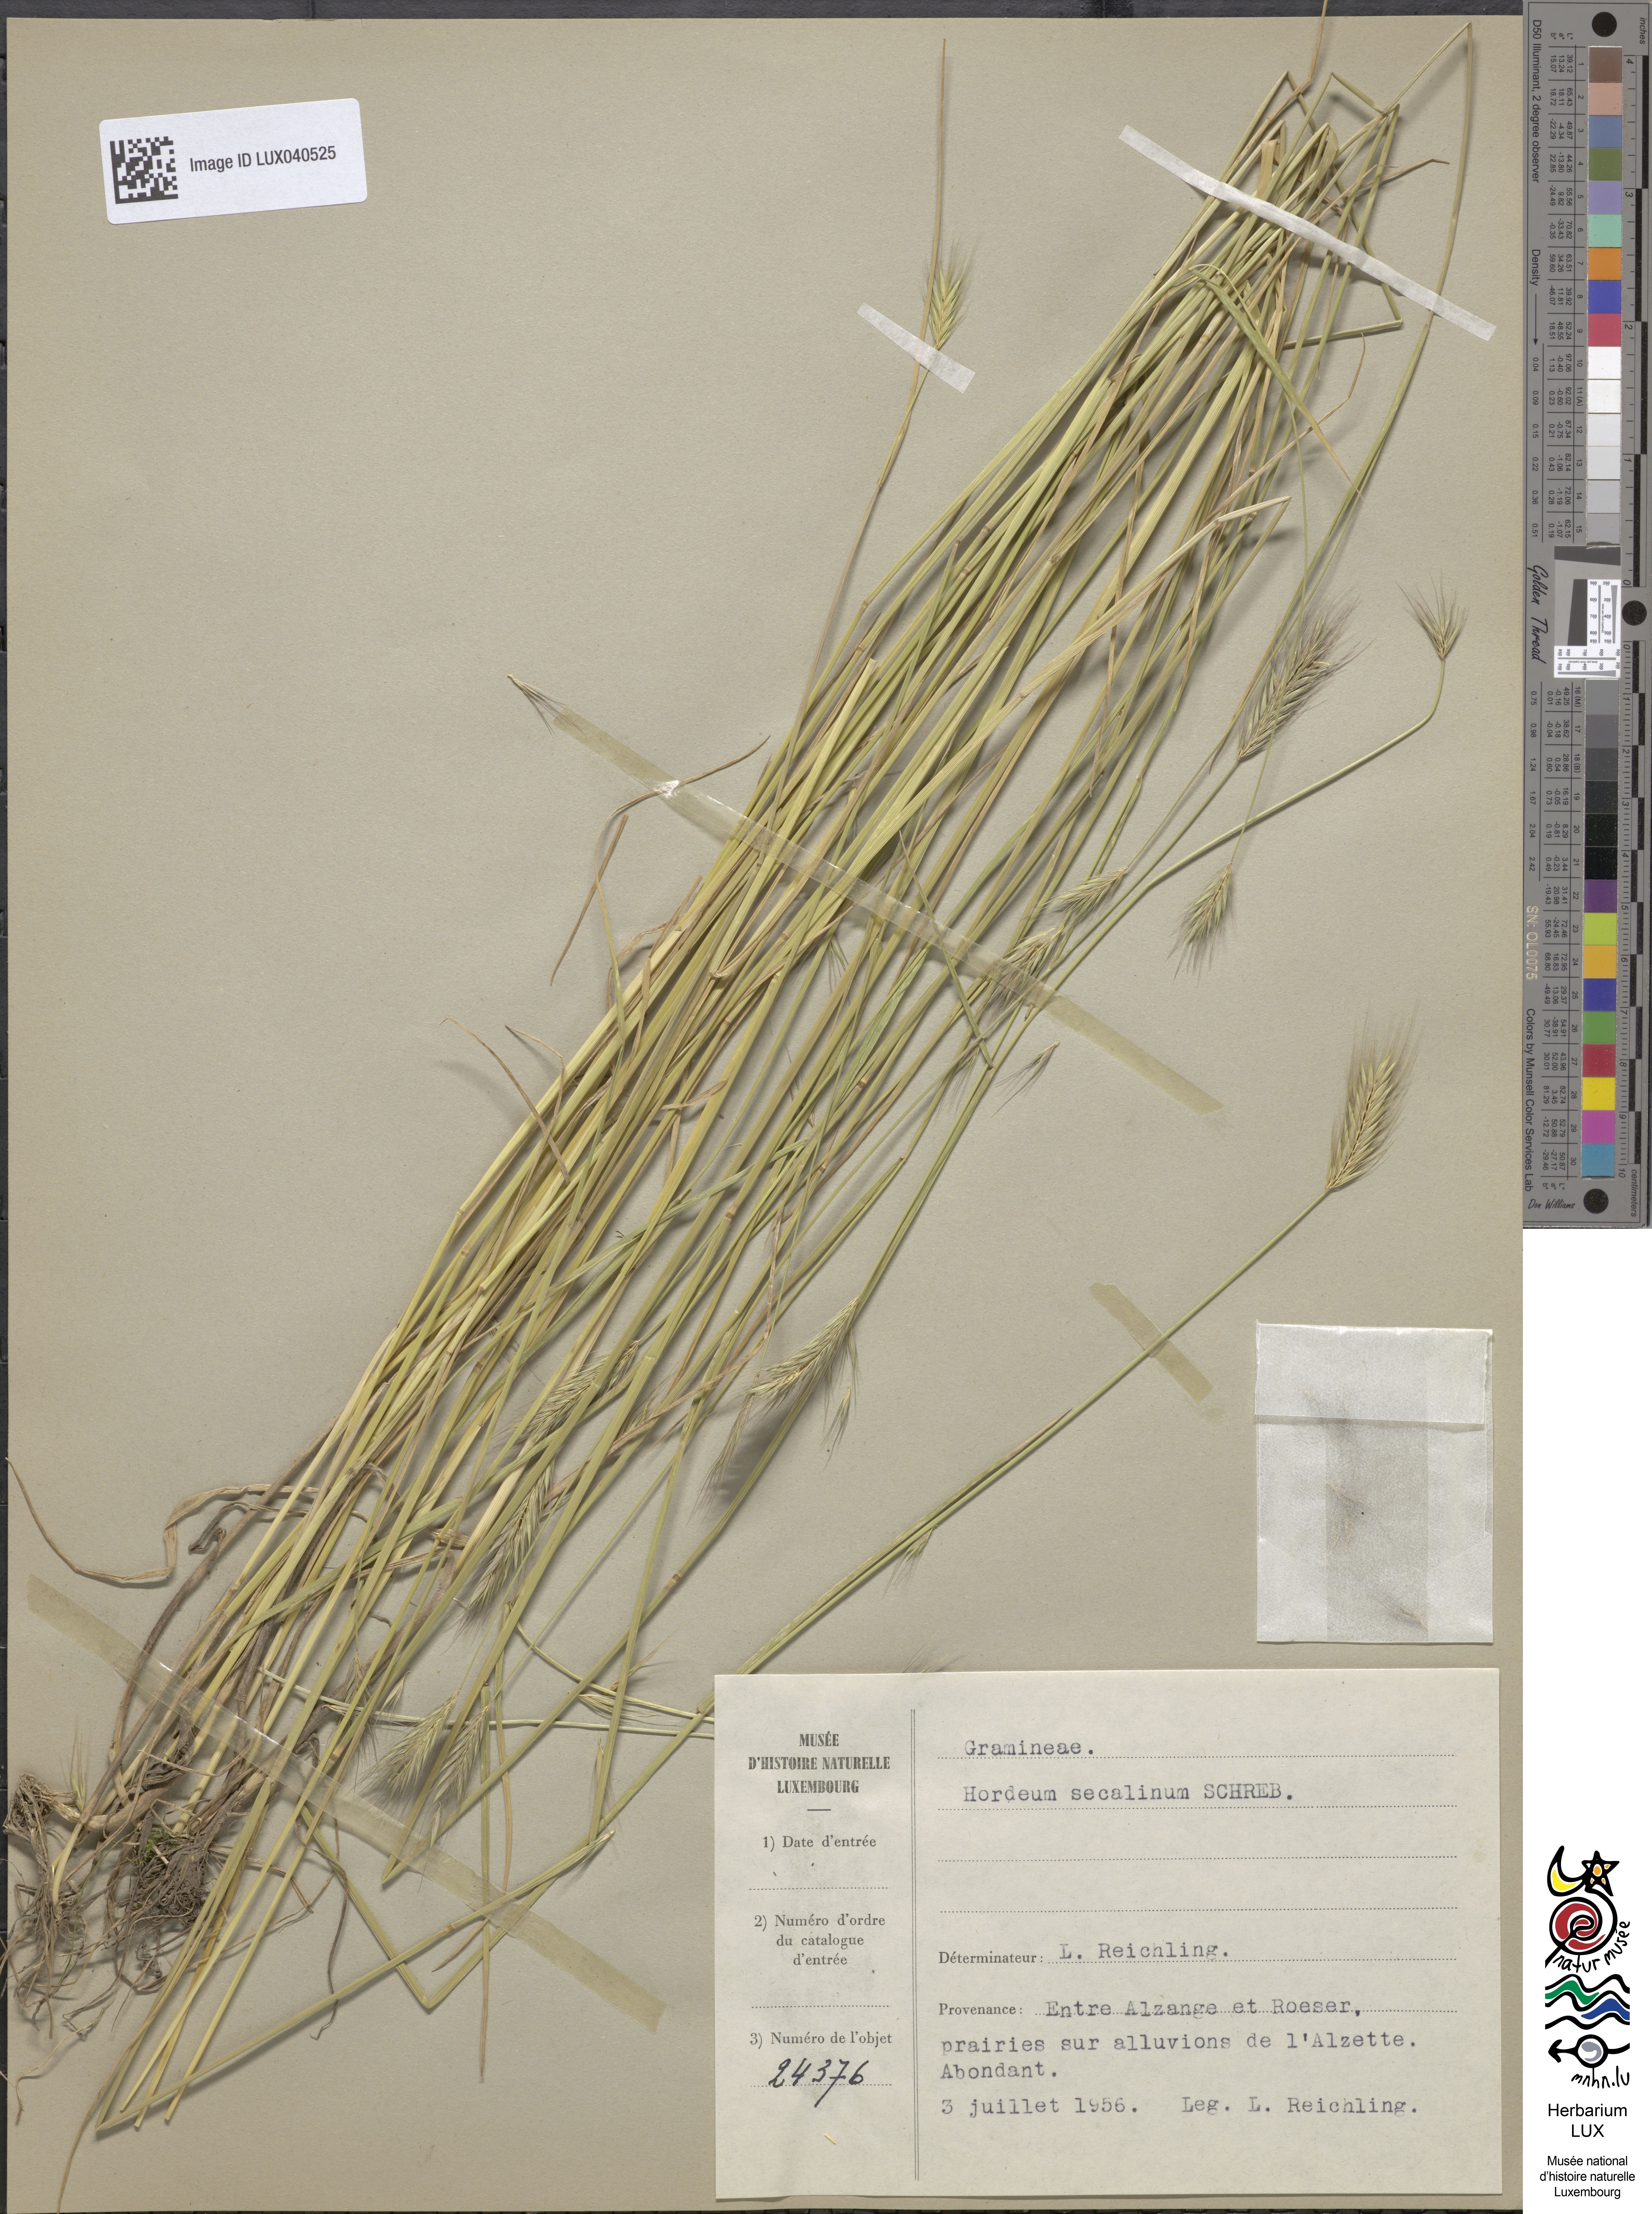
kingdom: Plantae
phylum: Tracheophyta
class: Liliopsida
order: Poales
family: Poaceae
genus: Hordeum
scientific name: Hordeum secalinum
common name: Meadow barley
